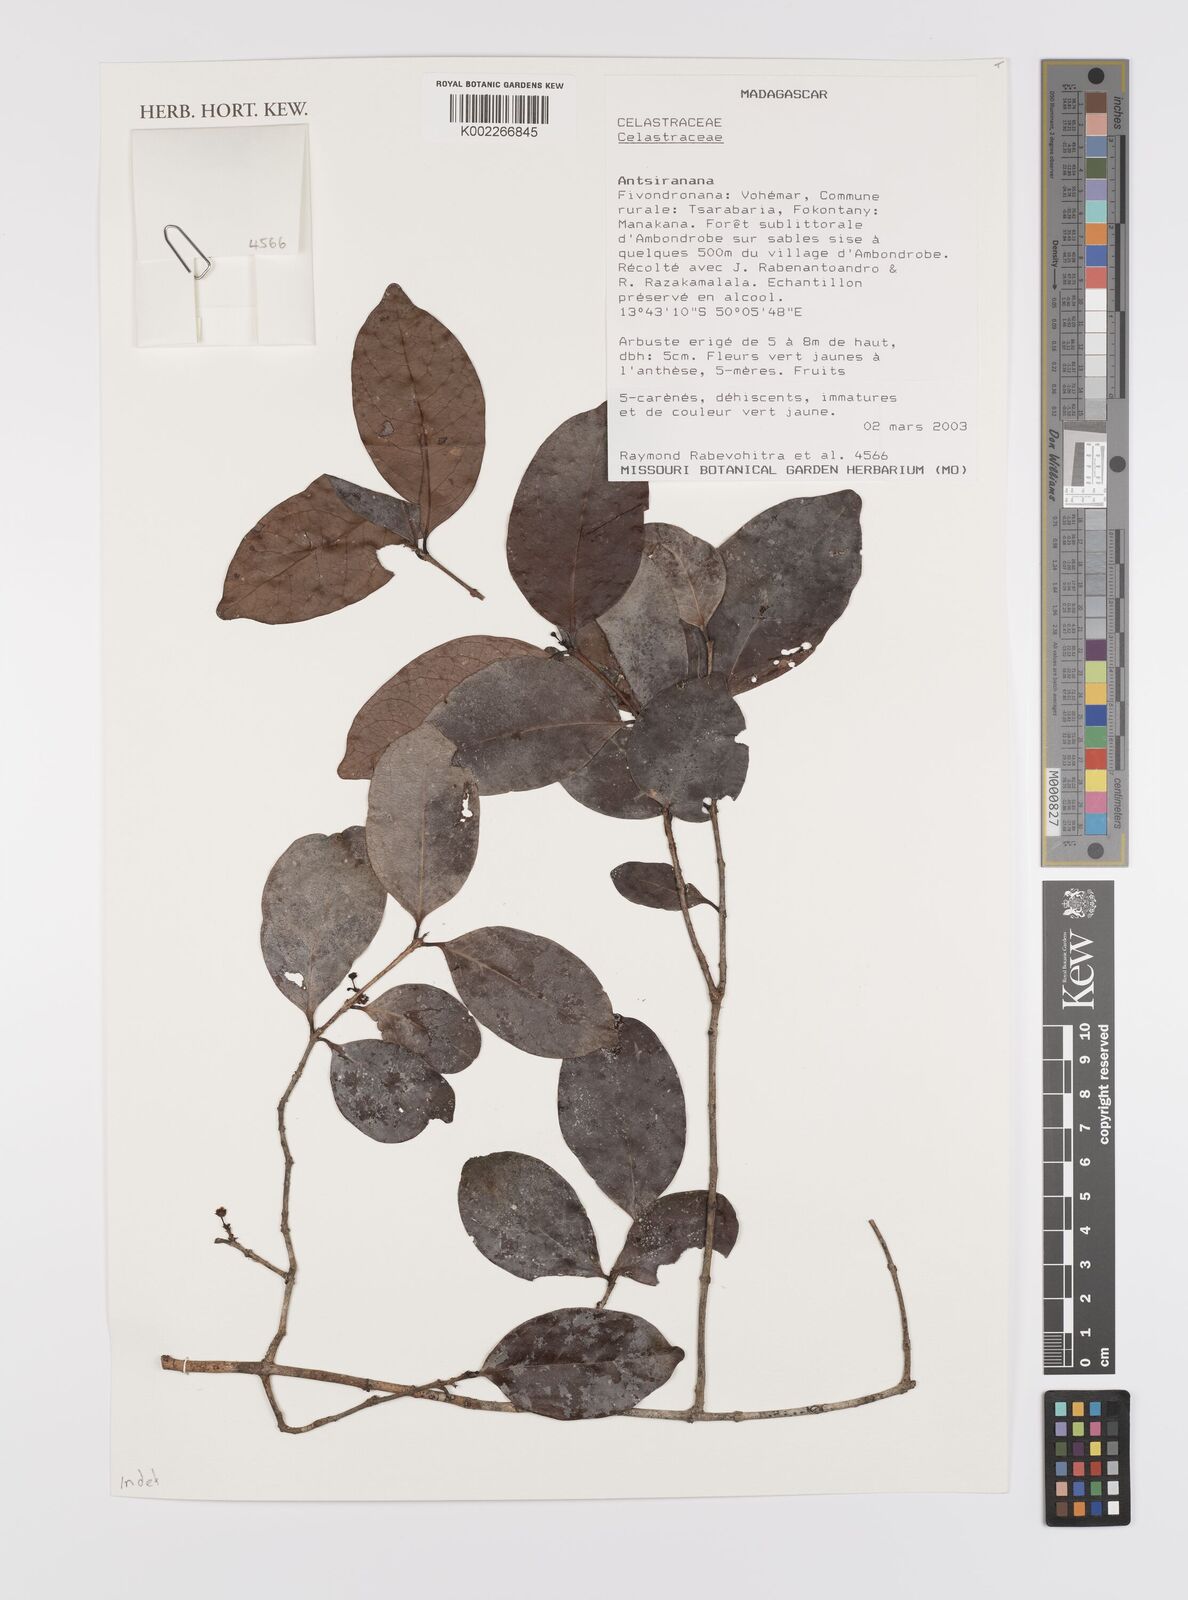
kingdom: Plantae
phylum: Tracheophyta
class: Magnoliopsida
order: Celastrales
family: Celastraceae
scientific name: Celastraceae
